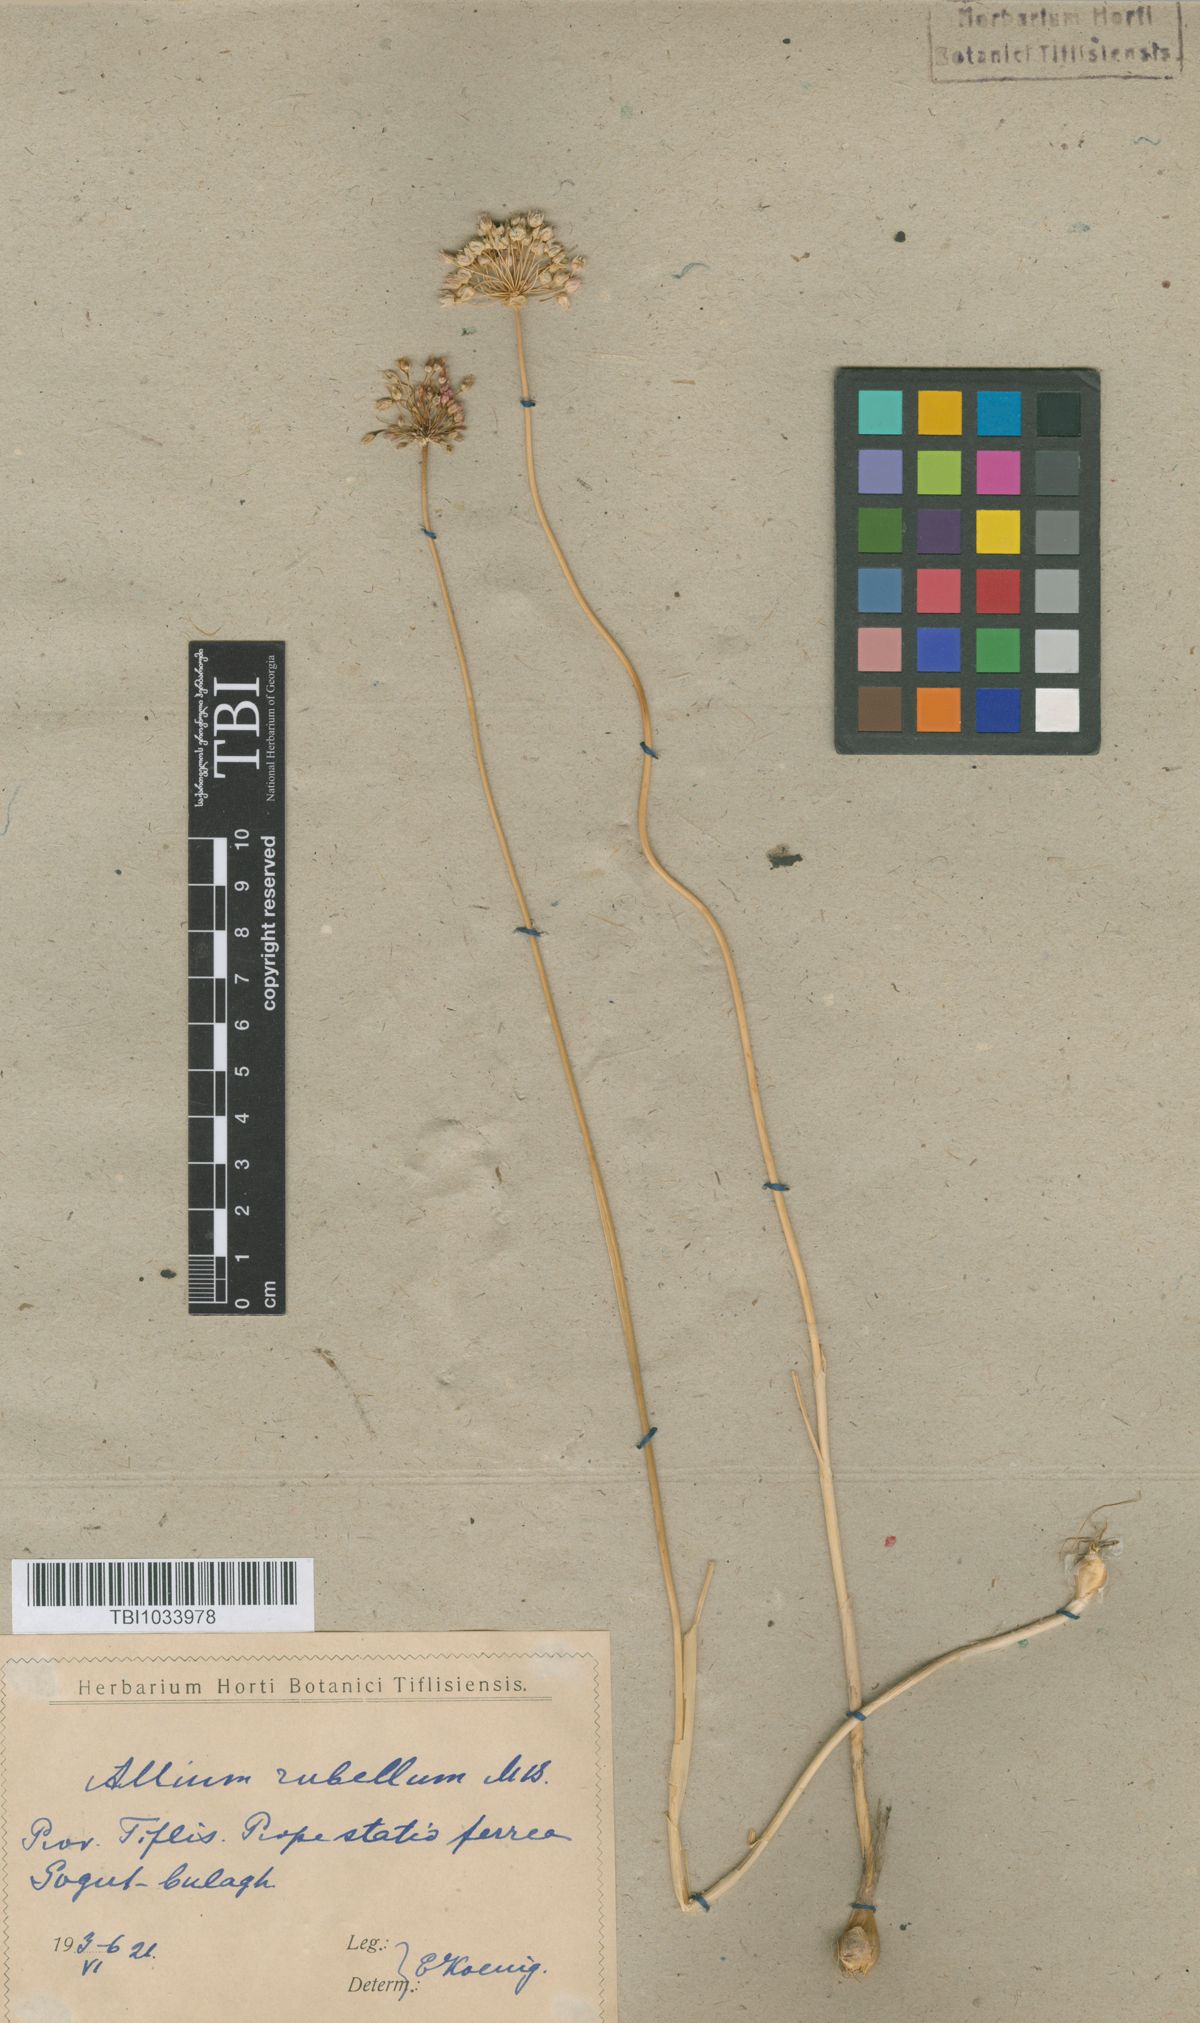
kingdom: Plantae
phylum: Tracheophyta
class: Liliopsida
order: Asparagales
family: Amaryllidaceae
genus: Allium
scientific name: Allium rubellum
